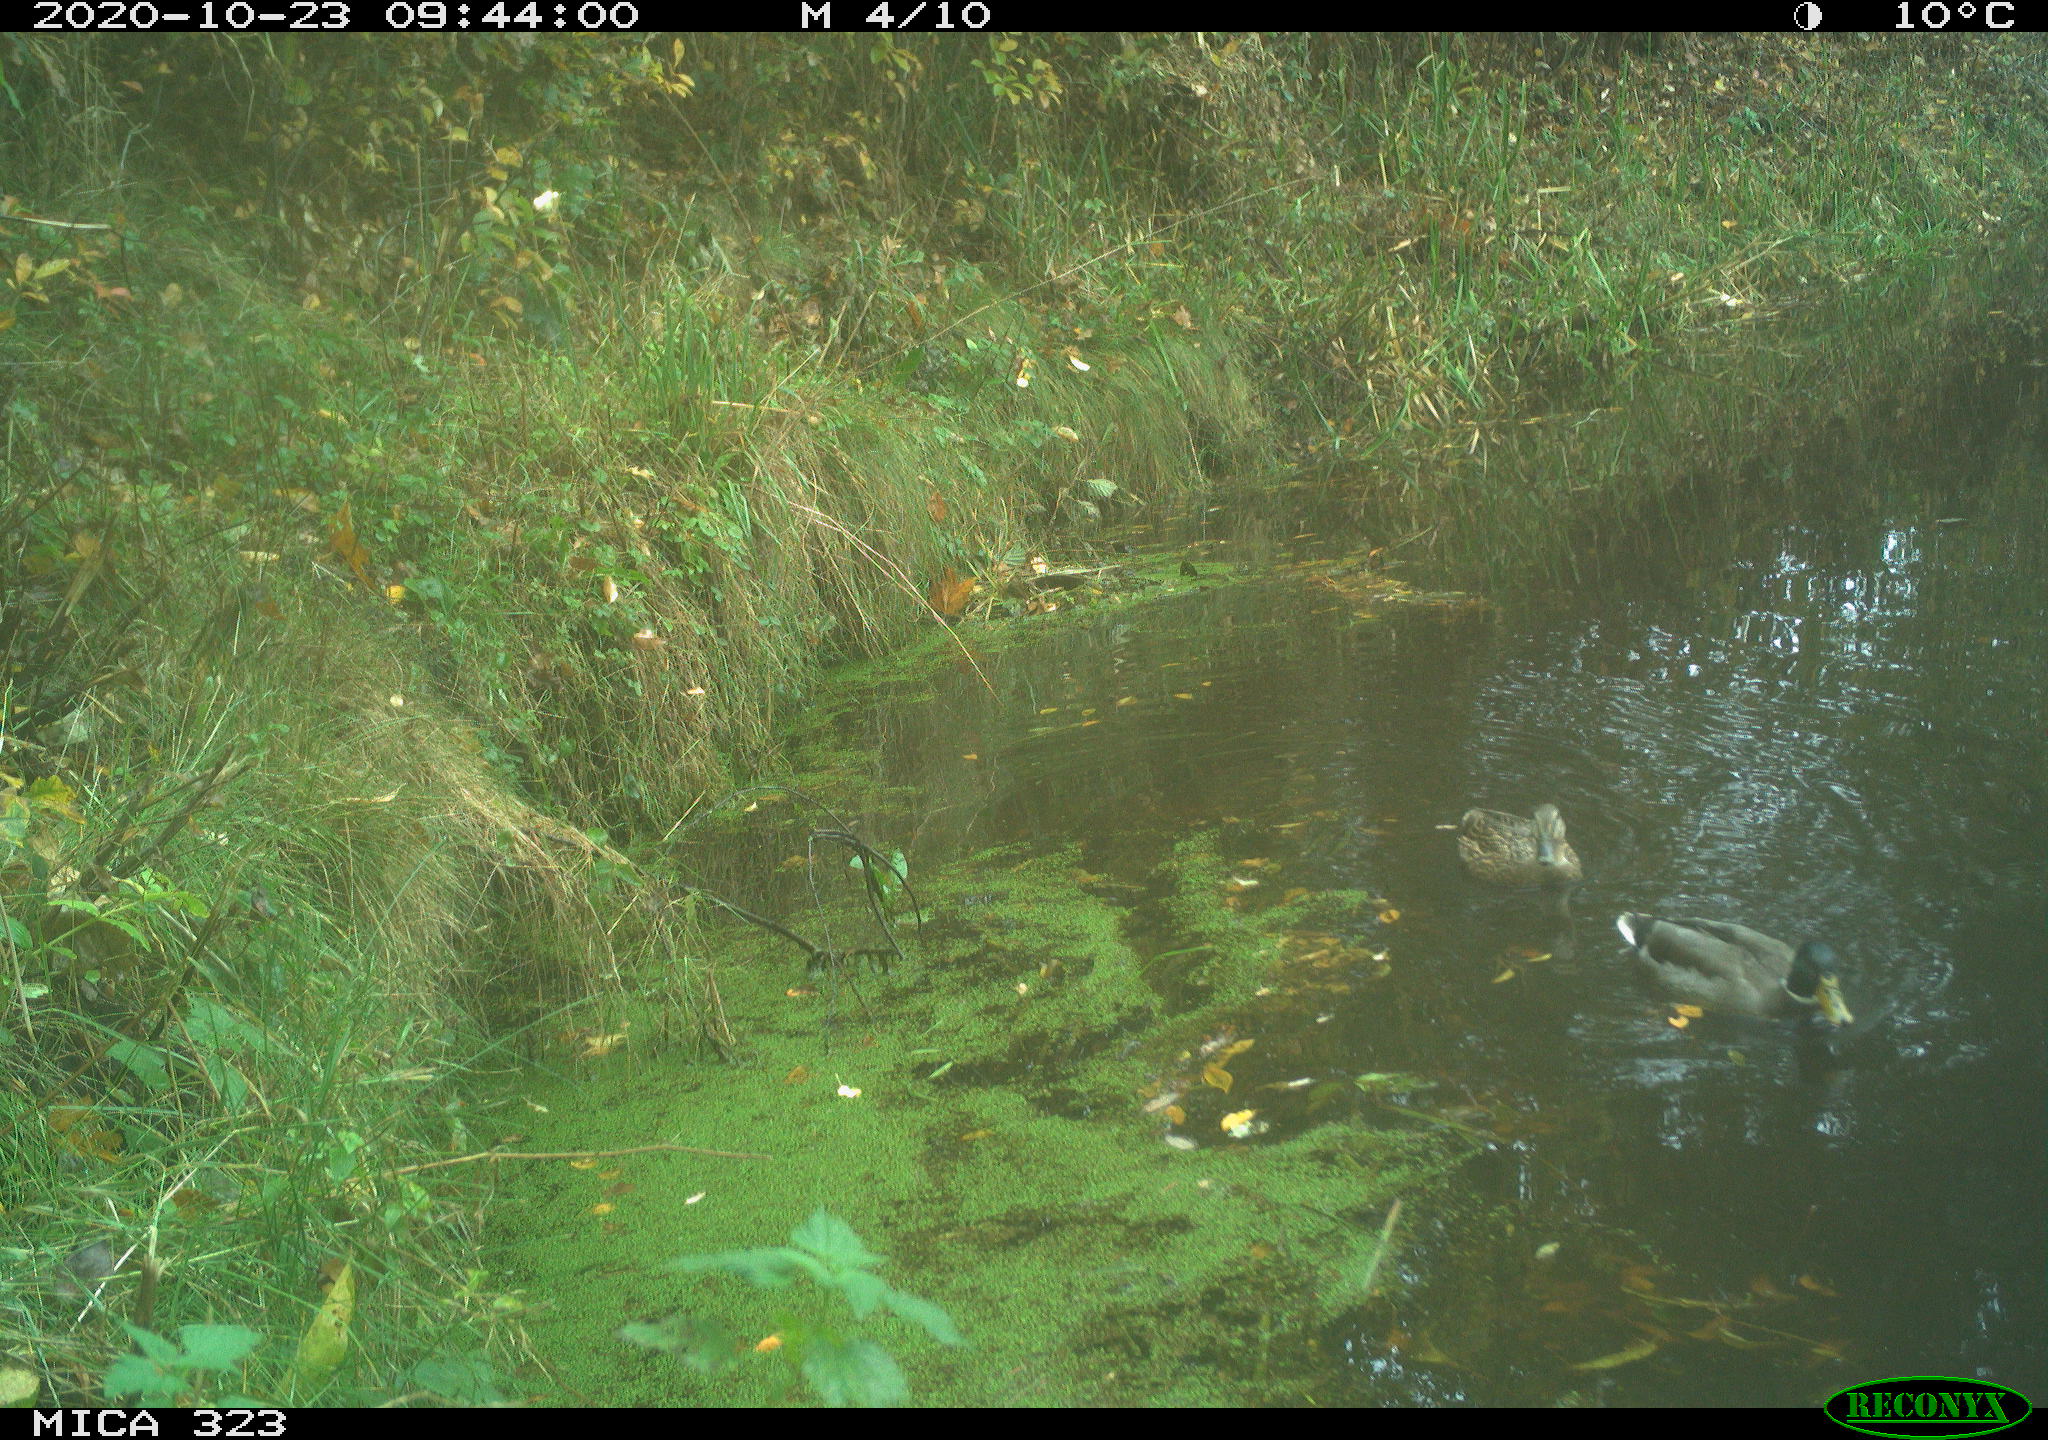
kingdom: Animalia
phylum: Chordata
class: Aves
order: Anseriformes
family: Anatidae
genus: Anas
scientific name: Anas platyrhynchos
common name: Mallard
